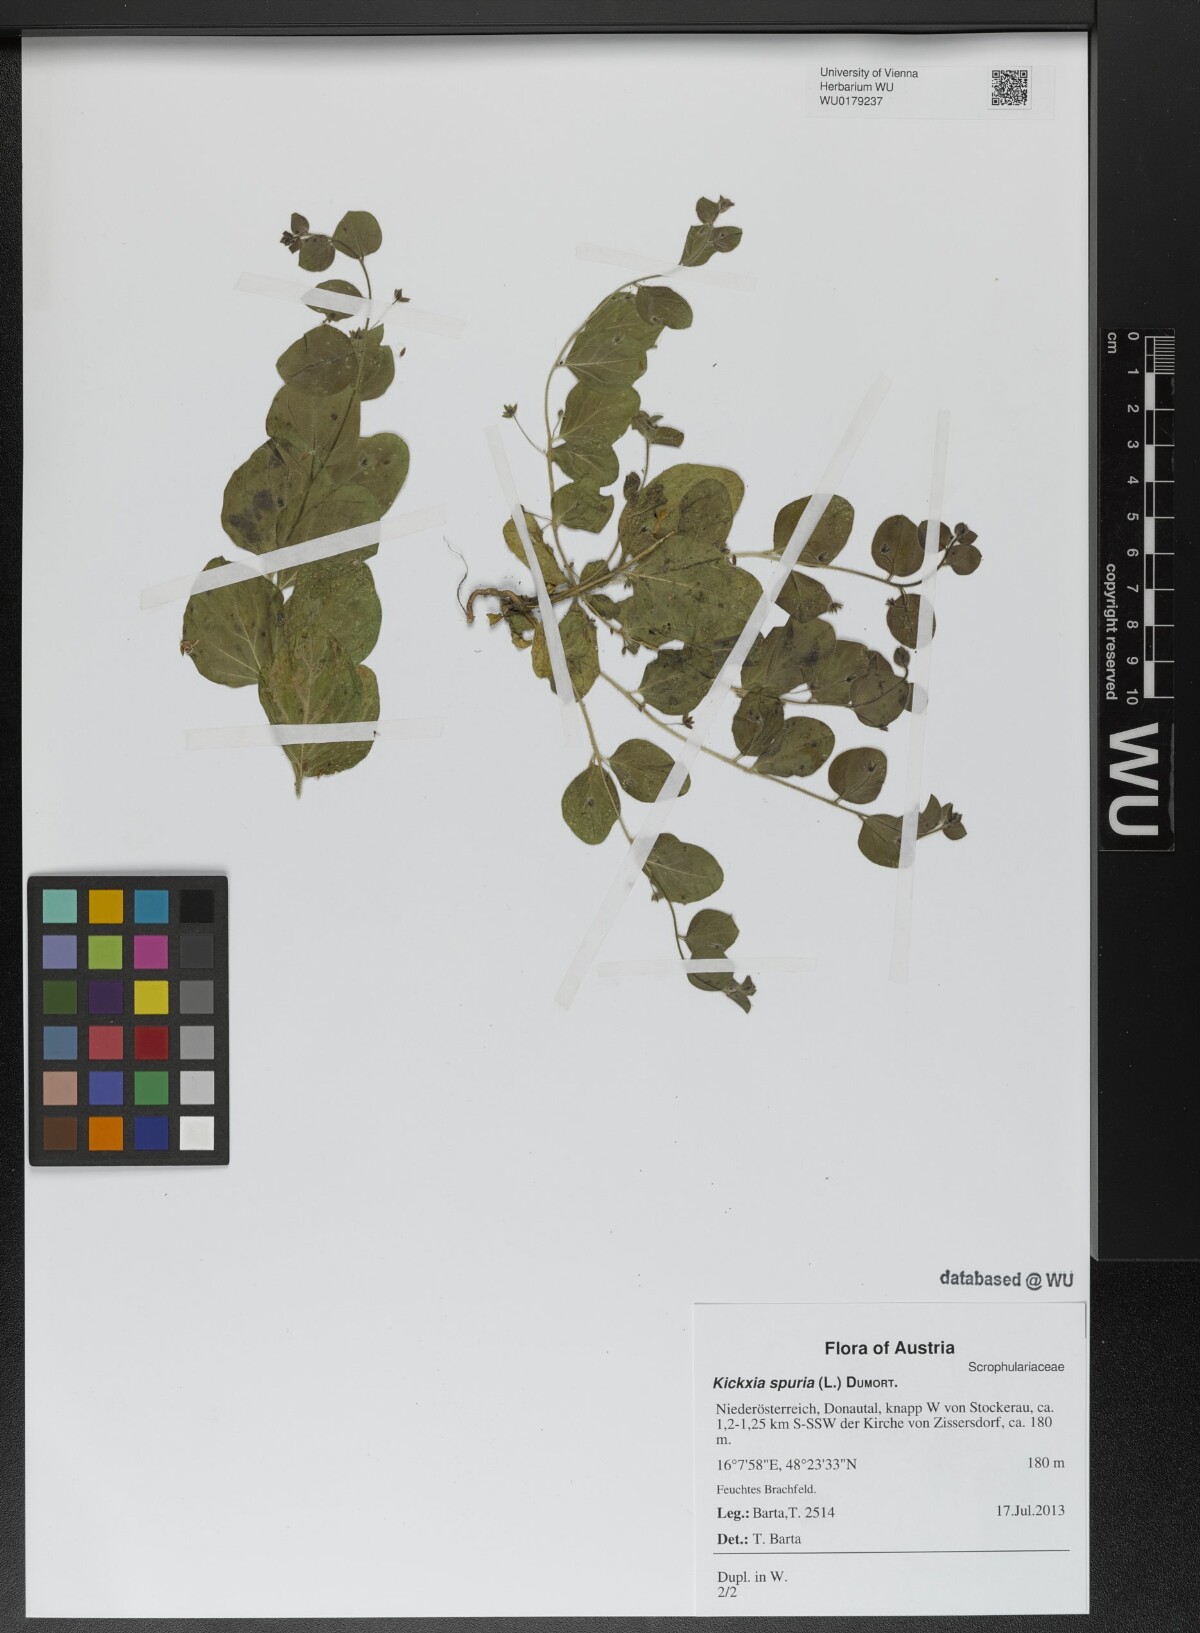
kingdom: Plantae
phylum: Tracheophyta
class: Magnoliopsida
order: Lamiales
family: Plantaginaceae
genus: Kickxia
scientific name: Kickxia spuria
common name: Round-leaved fluellen
